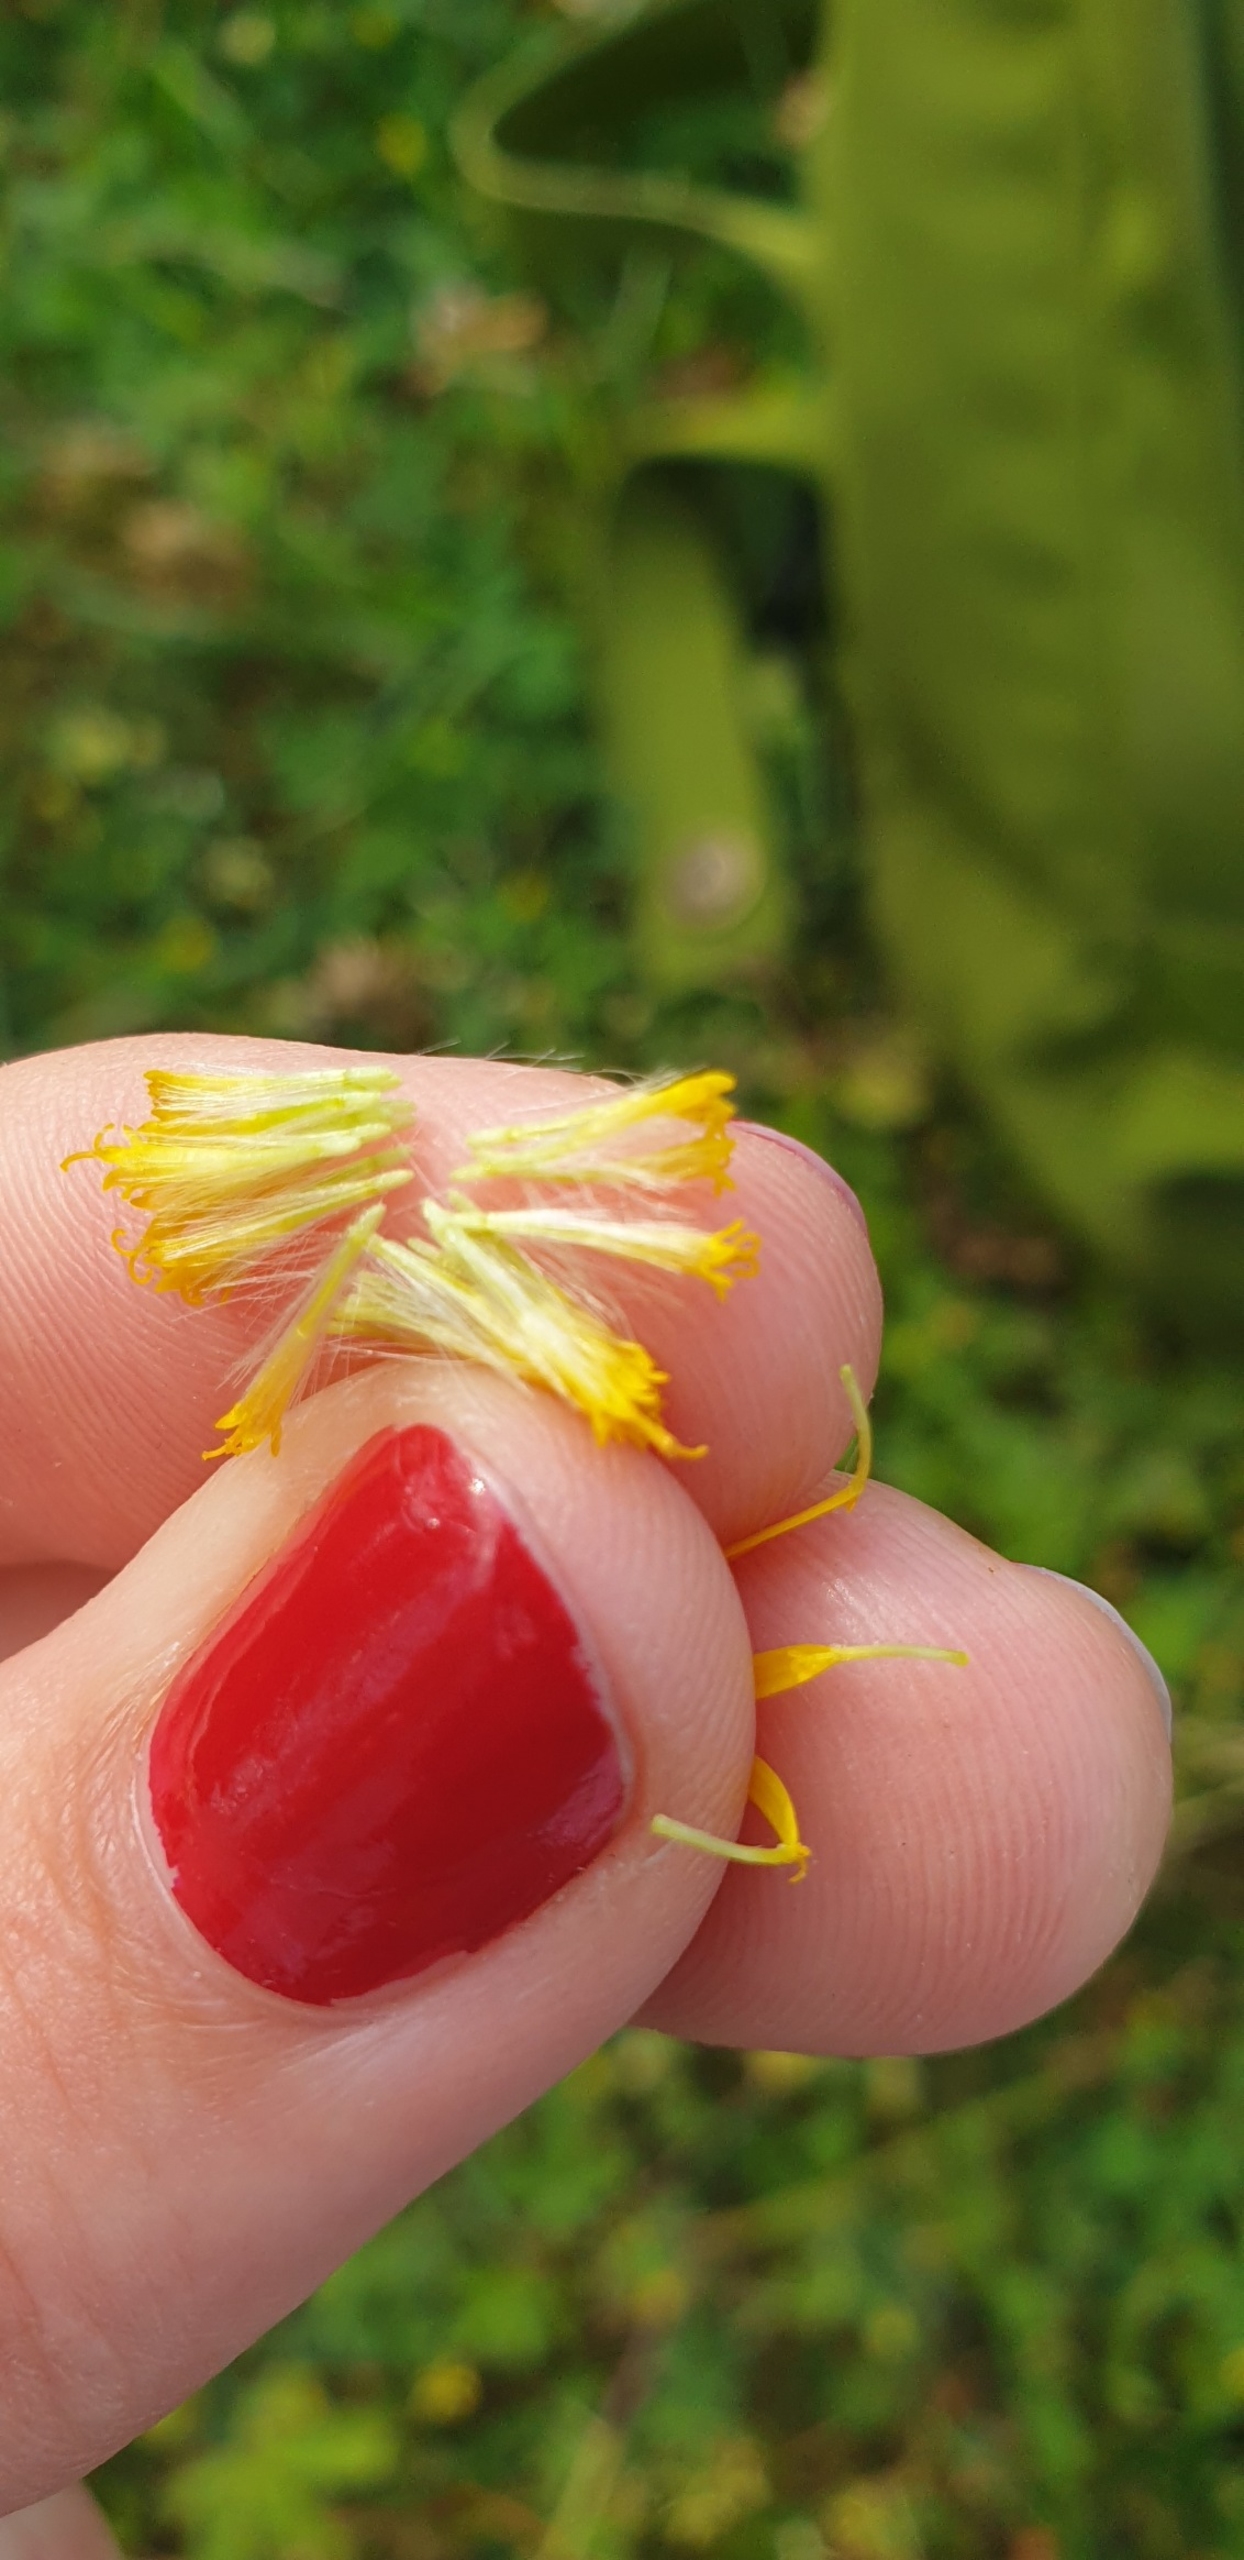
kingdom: Plantae
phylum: Tracheophyta
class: Magnoliopsida
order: Asterales
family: Asteraceae
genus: Jacobaea
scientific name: Jacobaea vulgaris
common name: Eng-brandbæger
